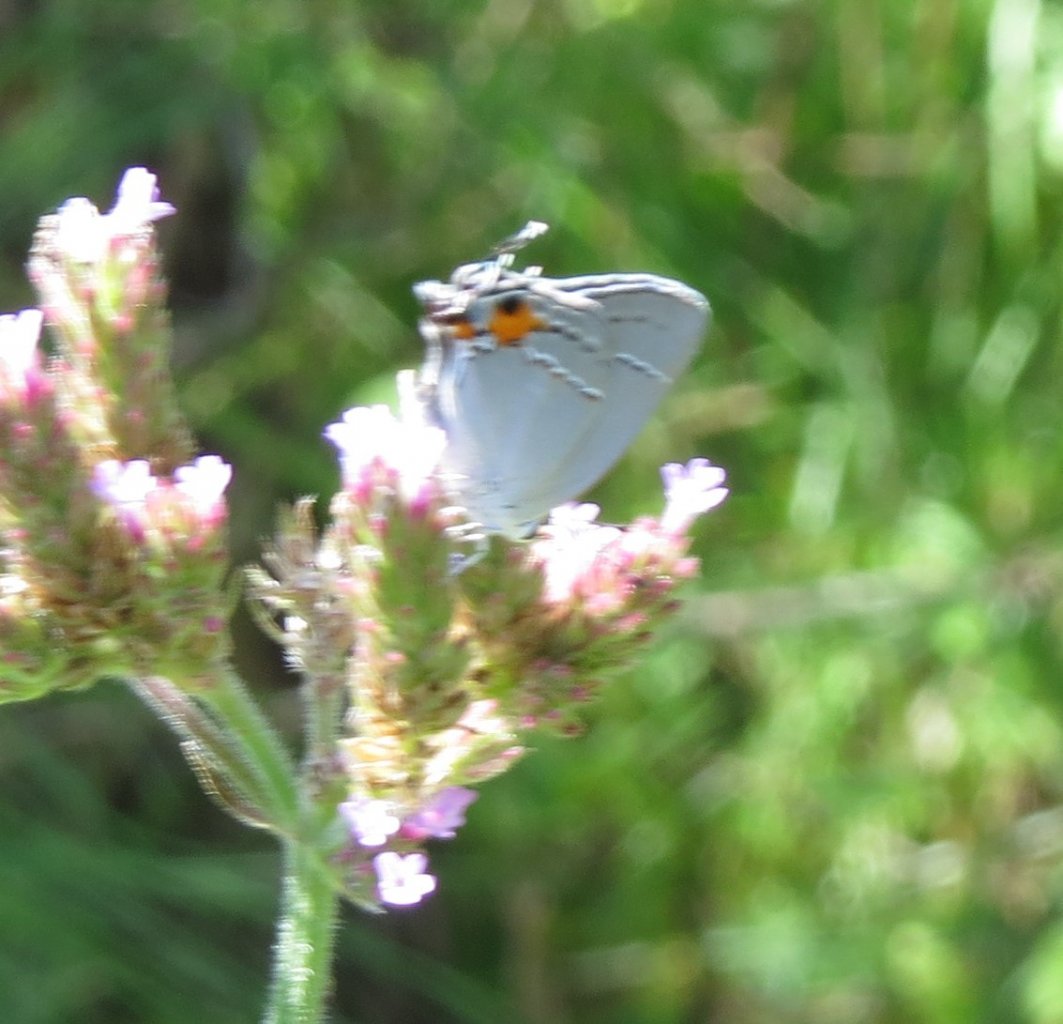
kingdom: Animalia
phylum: Arthropoda
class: Insecta
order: Lepidoptera
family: Lycaenidae
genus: Strymon
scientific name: Strymon melinus
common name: Gray Hairstreak
